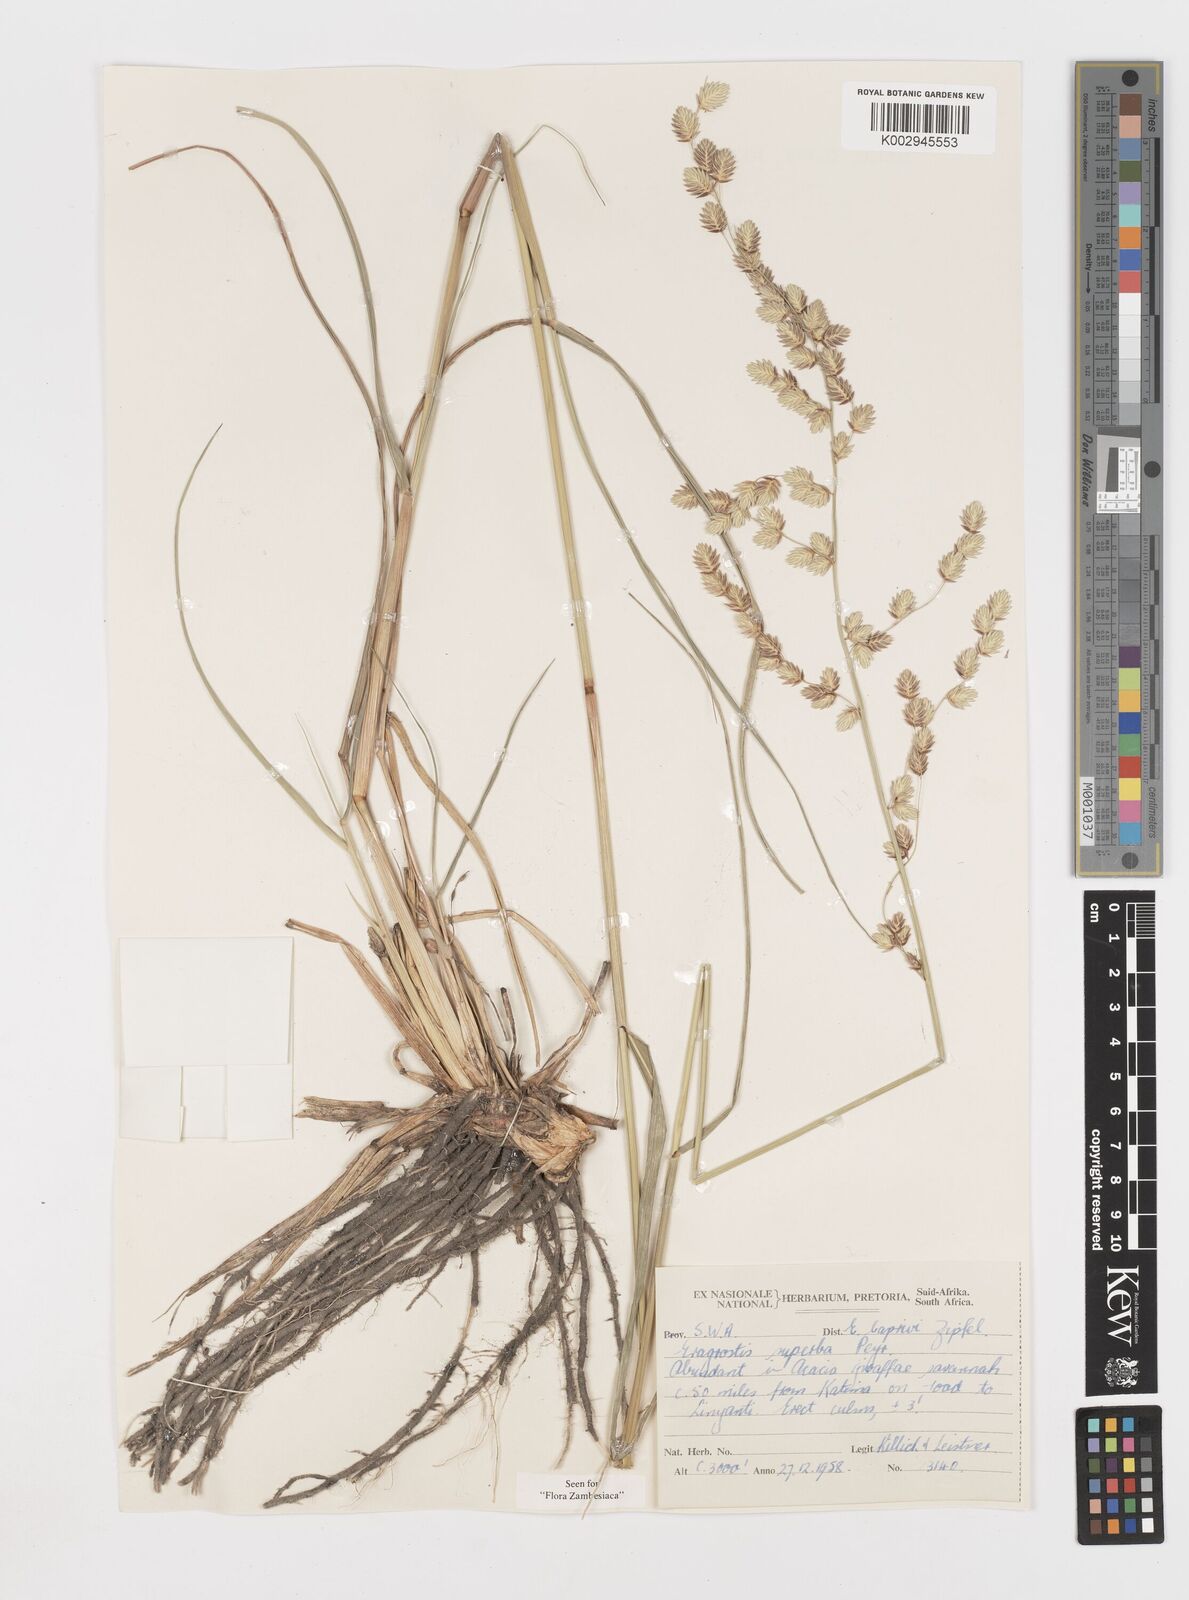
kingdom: Plantae
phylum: Tracheophyta
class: Liliopsida
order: Poales
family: Poaceae
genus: Eragrostis
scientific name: Eragrostis superba
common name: Wilman lovegrass
